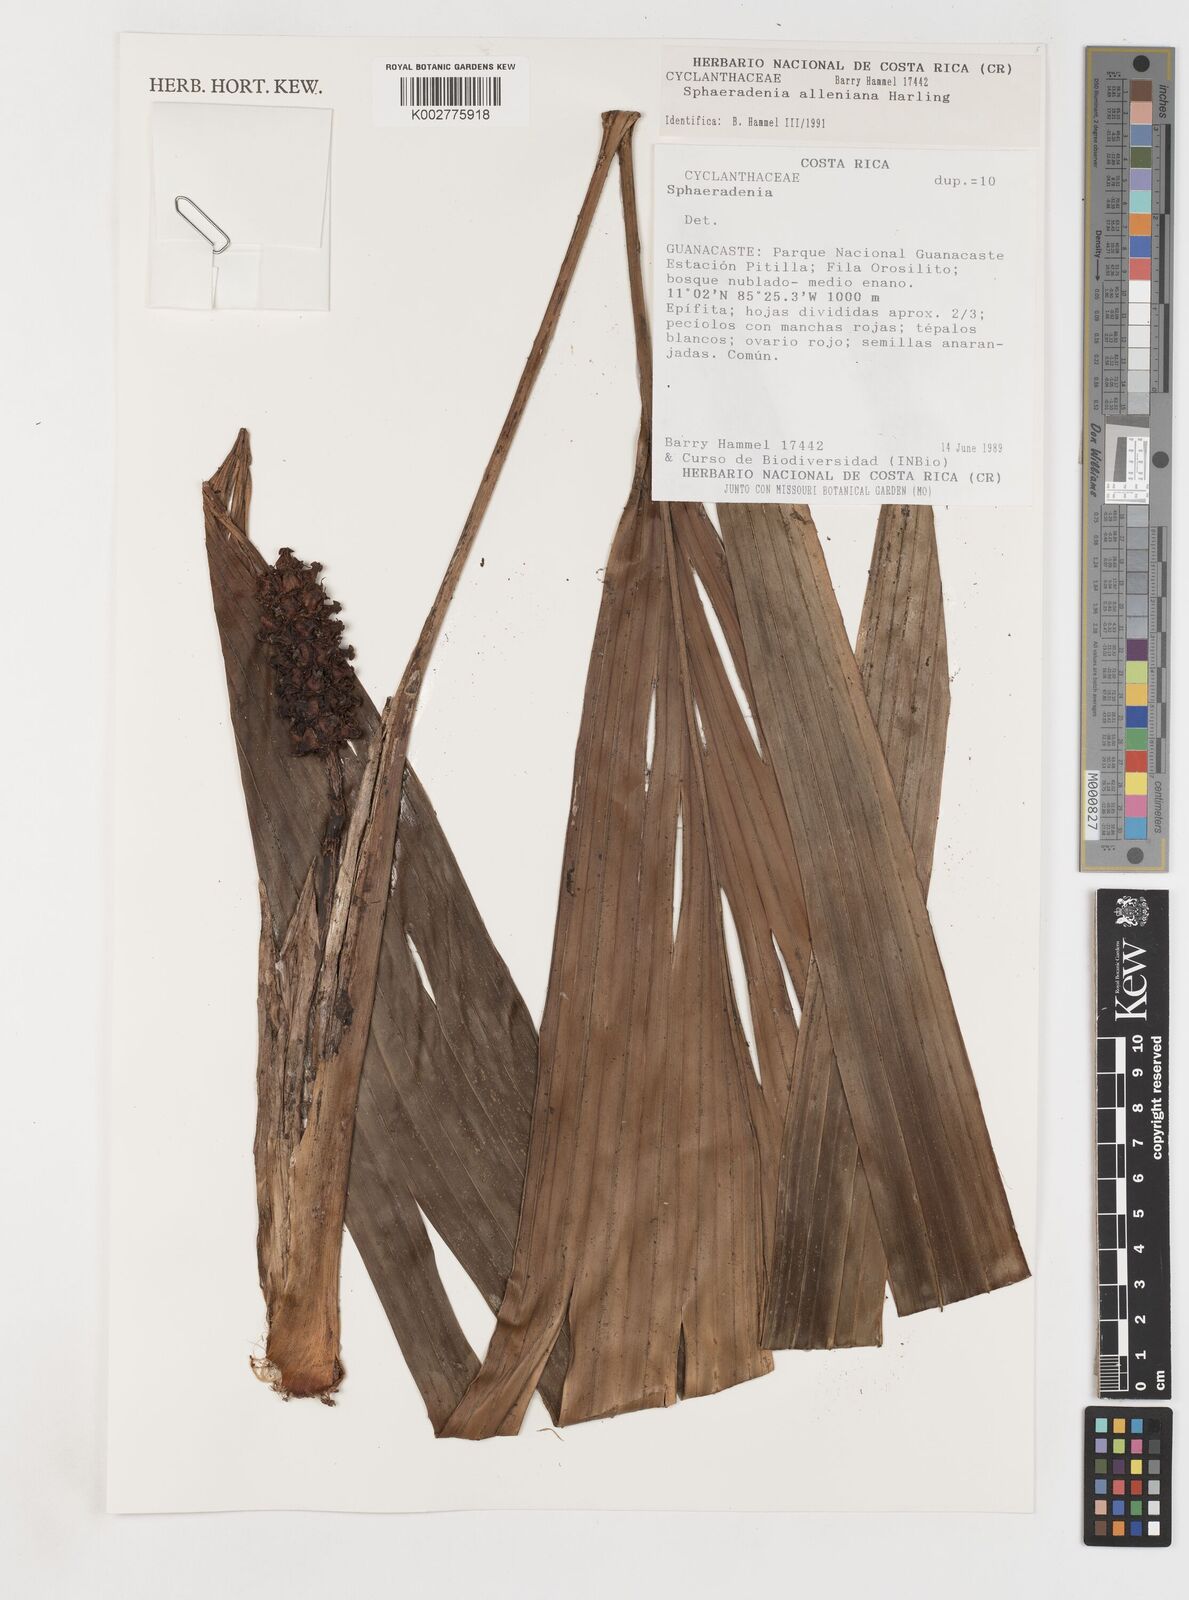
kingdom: Plantae
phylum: Tracheophyta
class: Liliopsida
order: Pandanales
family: Cyclanthaceae
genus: Sphaeradenia
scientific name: Sphaeradenia alleniana
